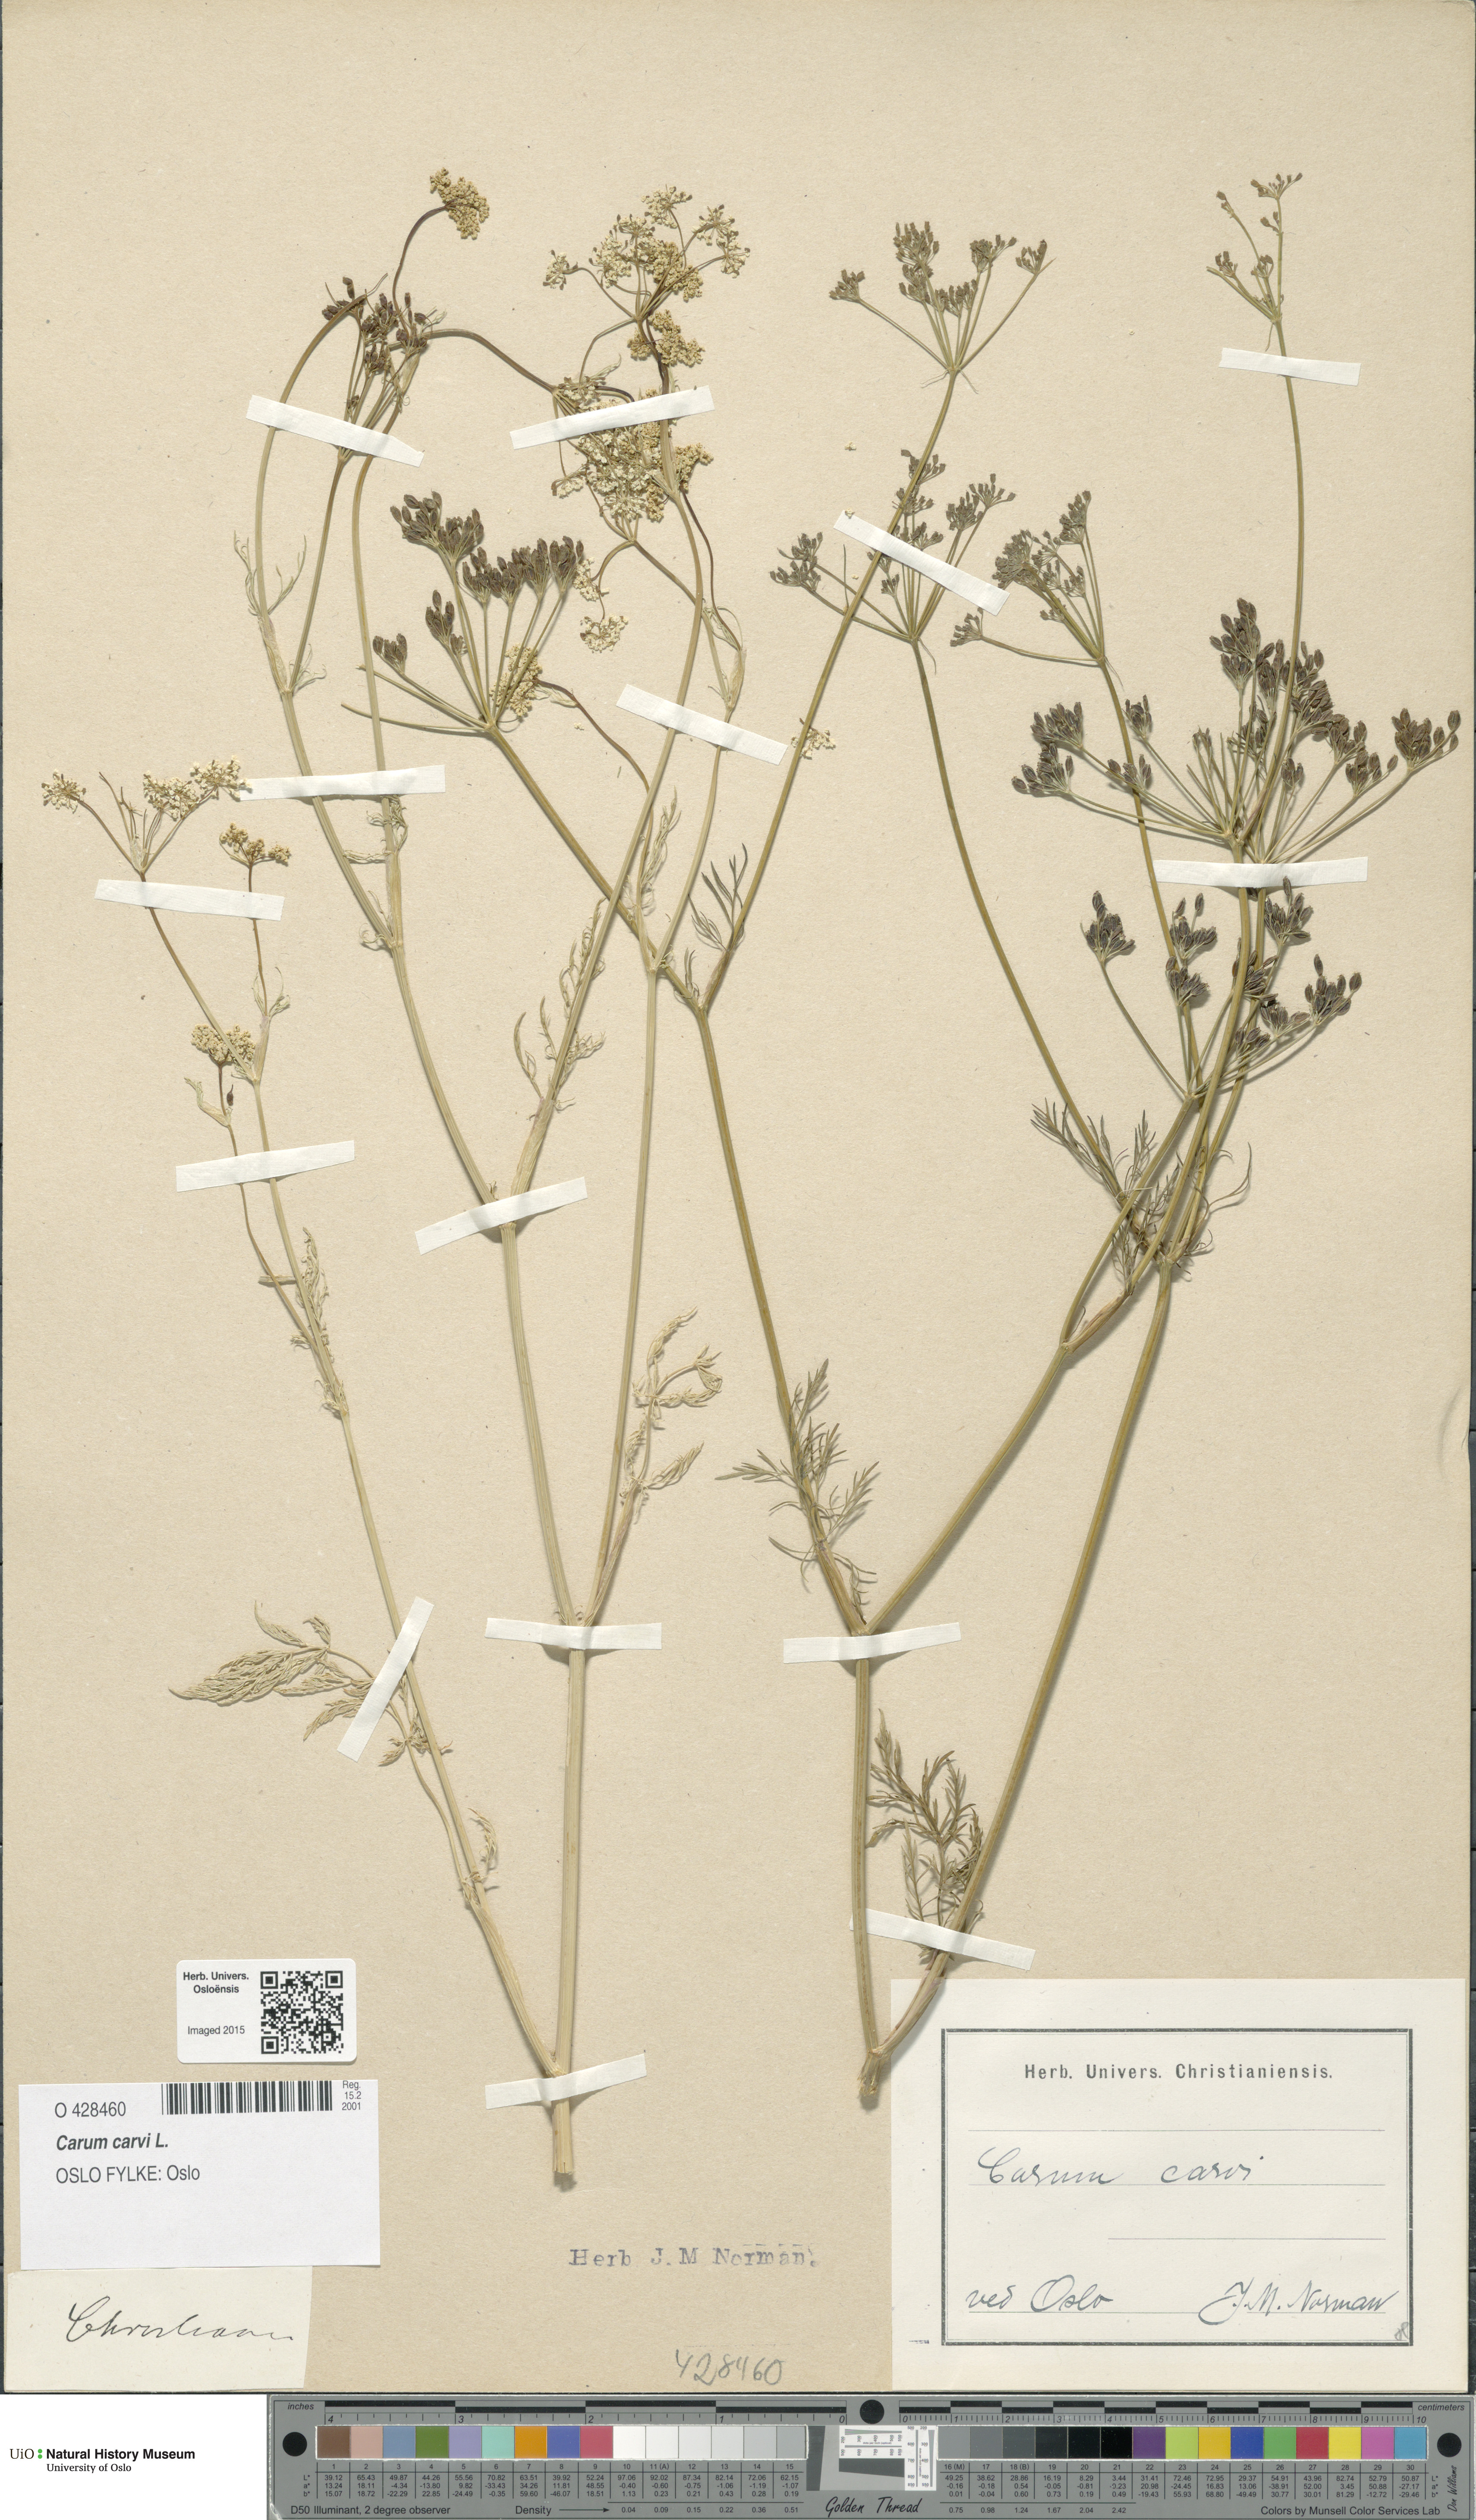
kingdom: Plantae
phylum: Tracheophyta
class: Magnoliopsida
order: Apiales
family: Apiaceae
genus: Carum
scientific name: Carum carvi
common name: Caraway
